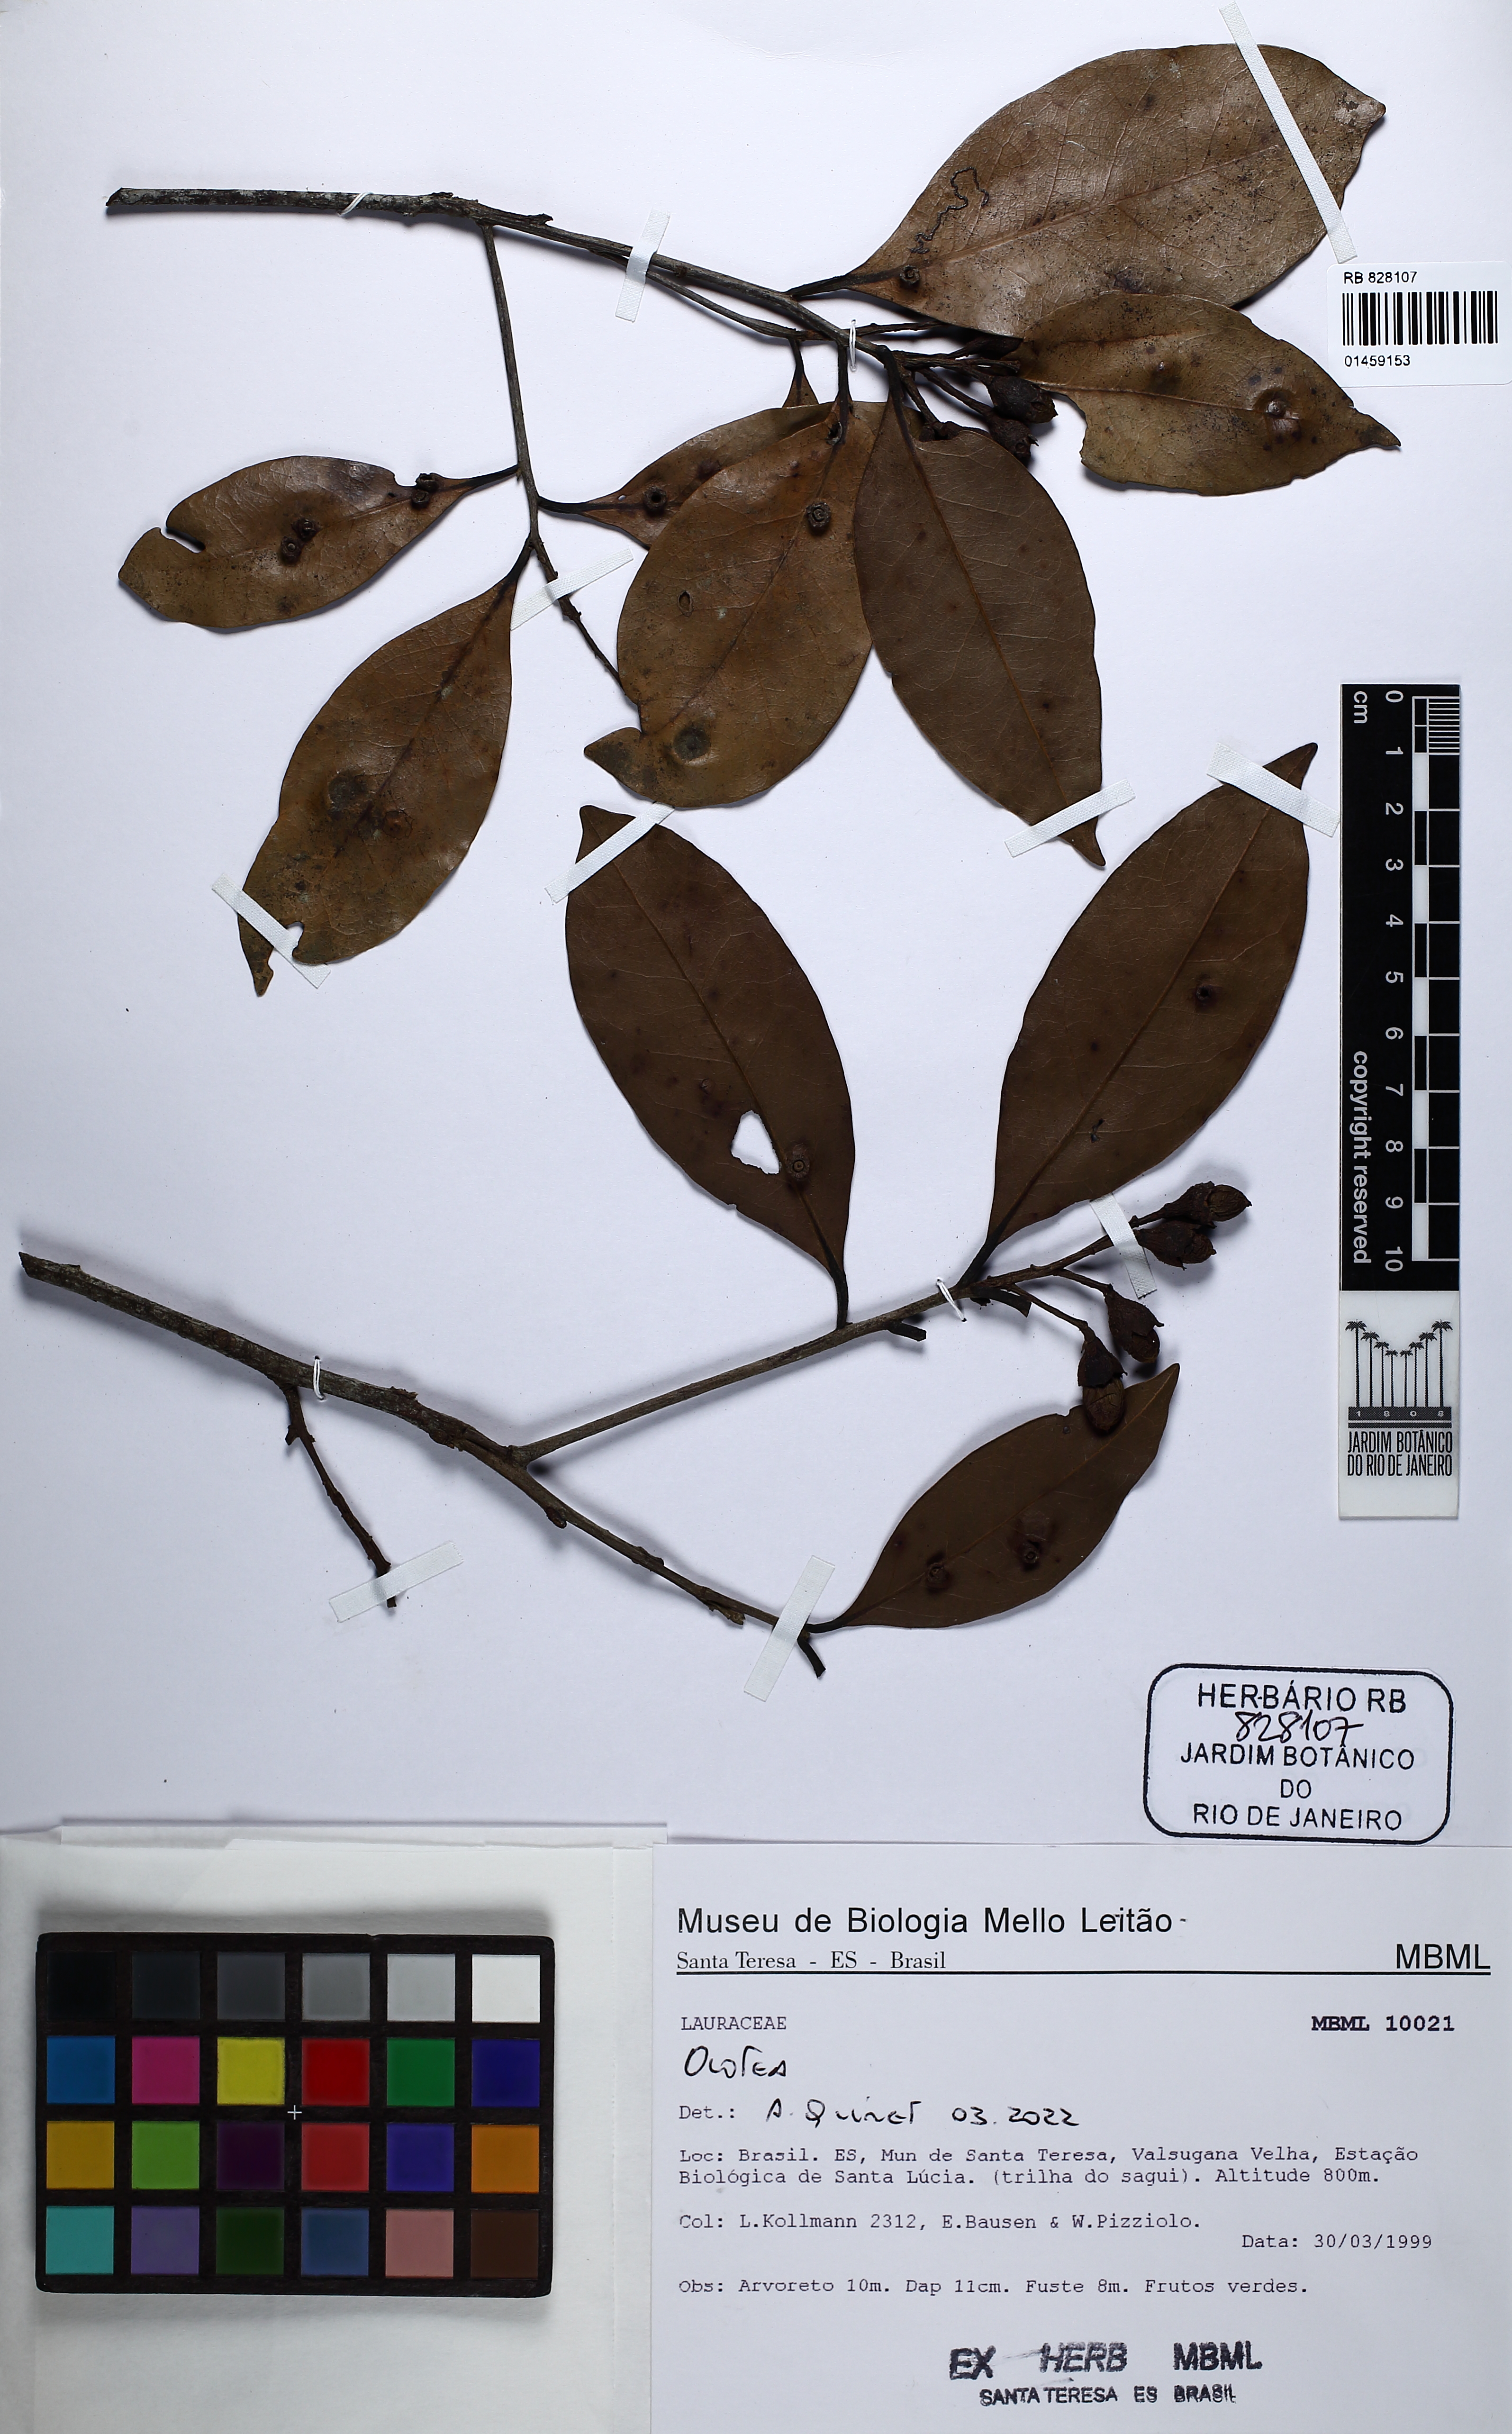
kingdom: Plantae
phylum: Tracheophyta
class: Magnoliopsida
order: Laurales
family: Lauraceae
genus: Ocotea
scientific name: Ocotea
